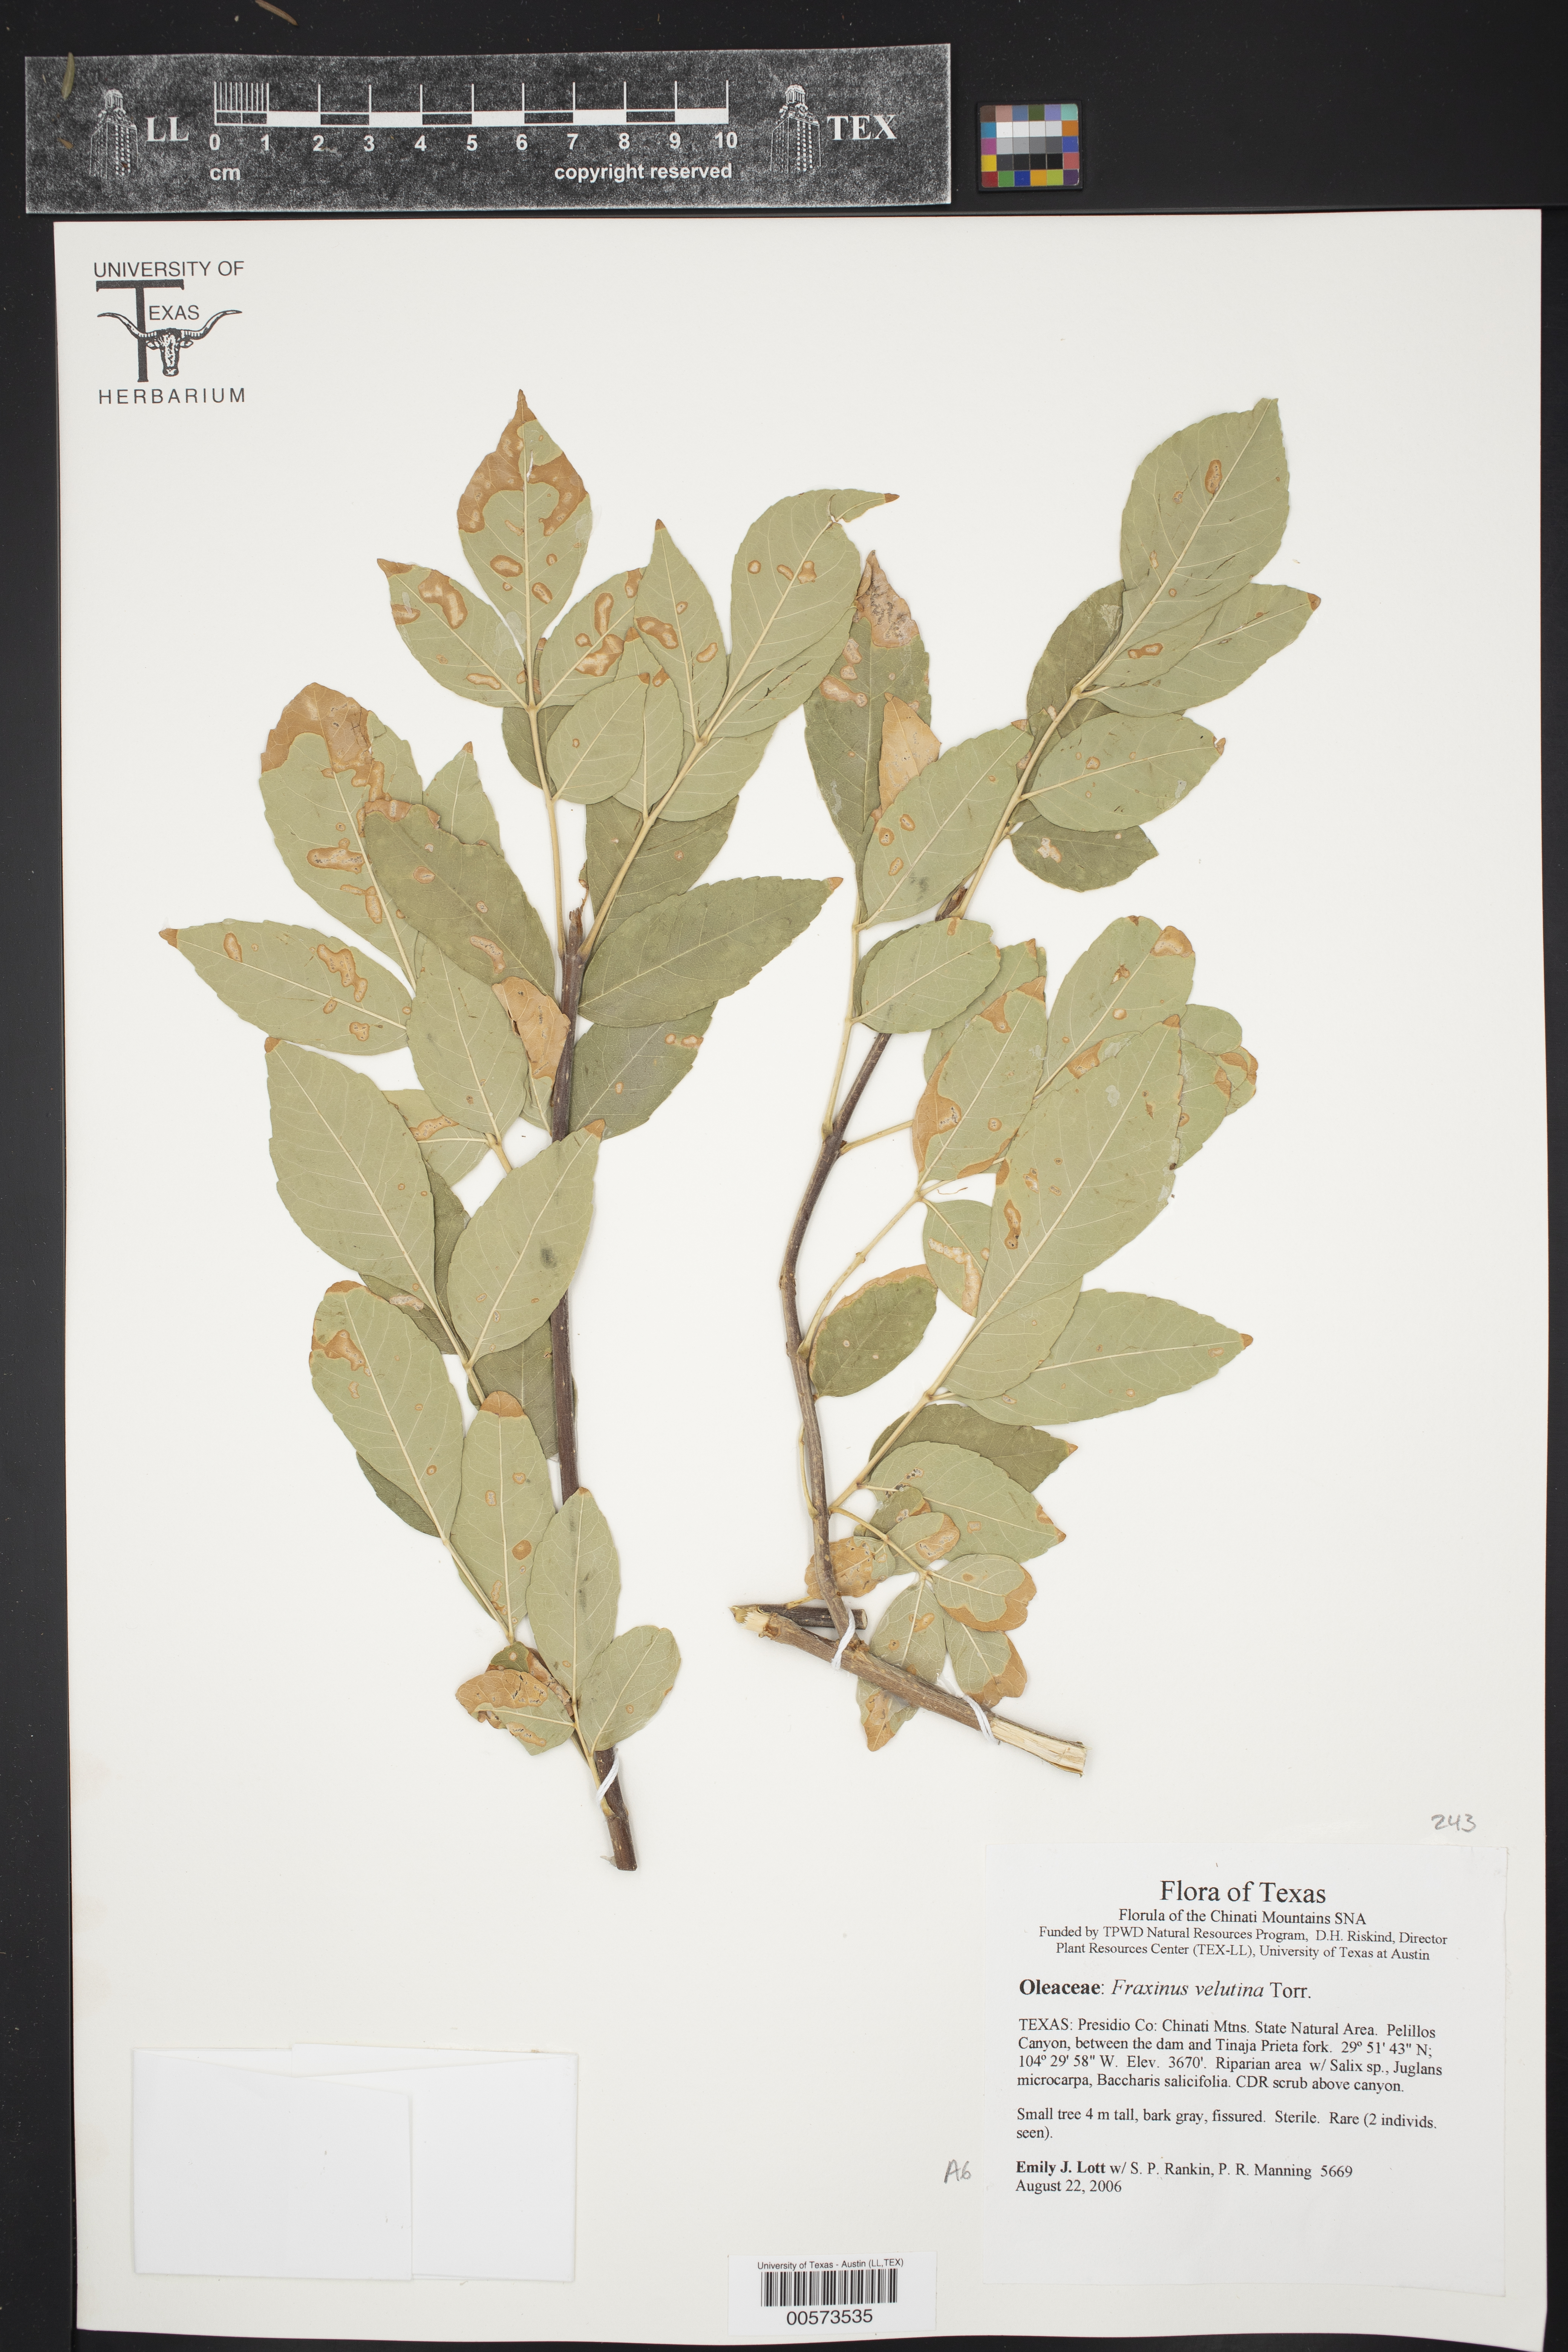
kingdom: Plantae
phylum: Tracheophyta
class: Magnoliopsida
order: Lamiales
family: Oleaceae
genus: Fraxinus
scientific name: Fraxinus velutina
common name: Arizon ash
